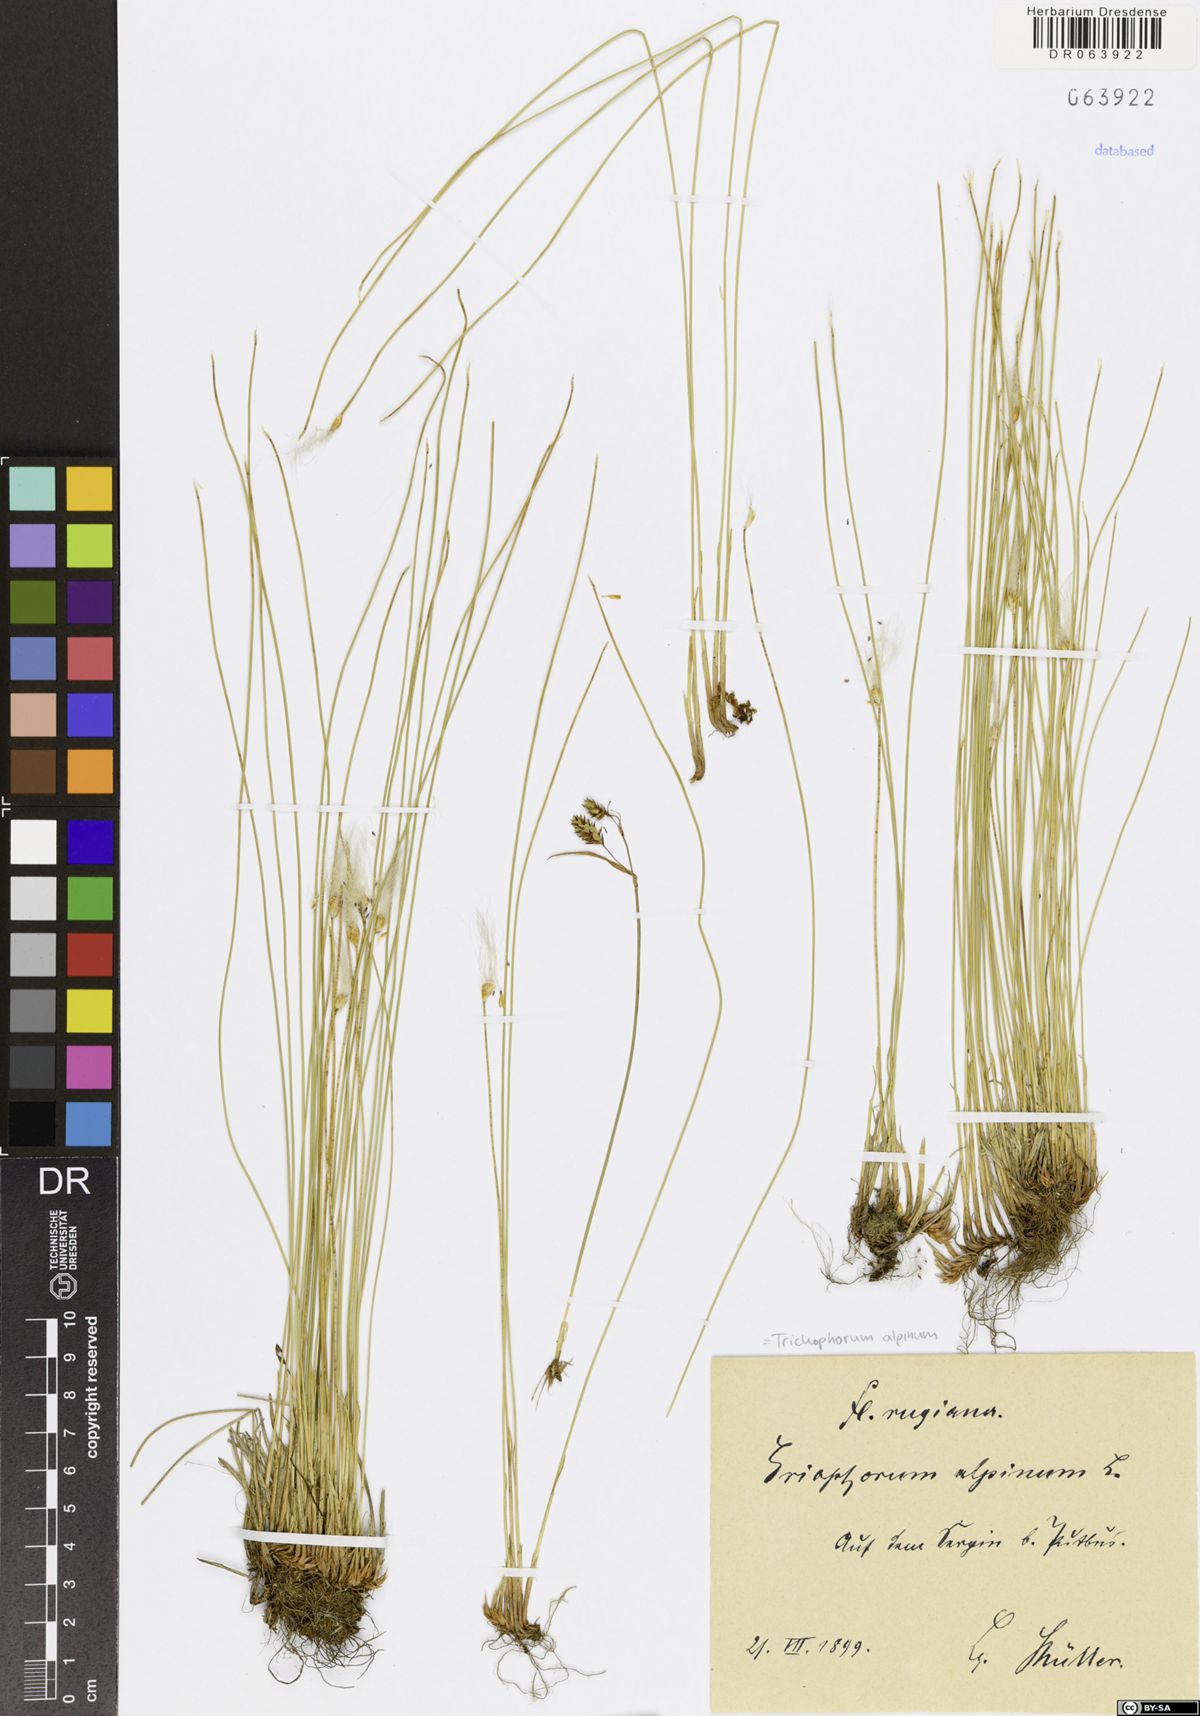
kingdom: Plantae
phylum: Tracheophyta
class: Liliopsida
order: Poales
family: Cyperaceae
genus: Trichophorum
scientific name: Trichophorum alpinum
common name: Alpine bulrush
